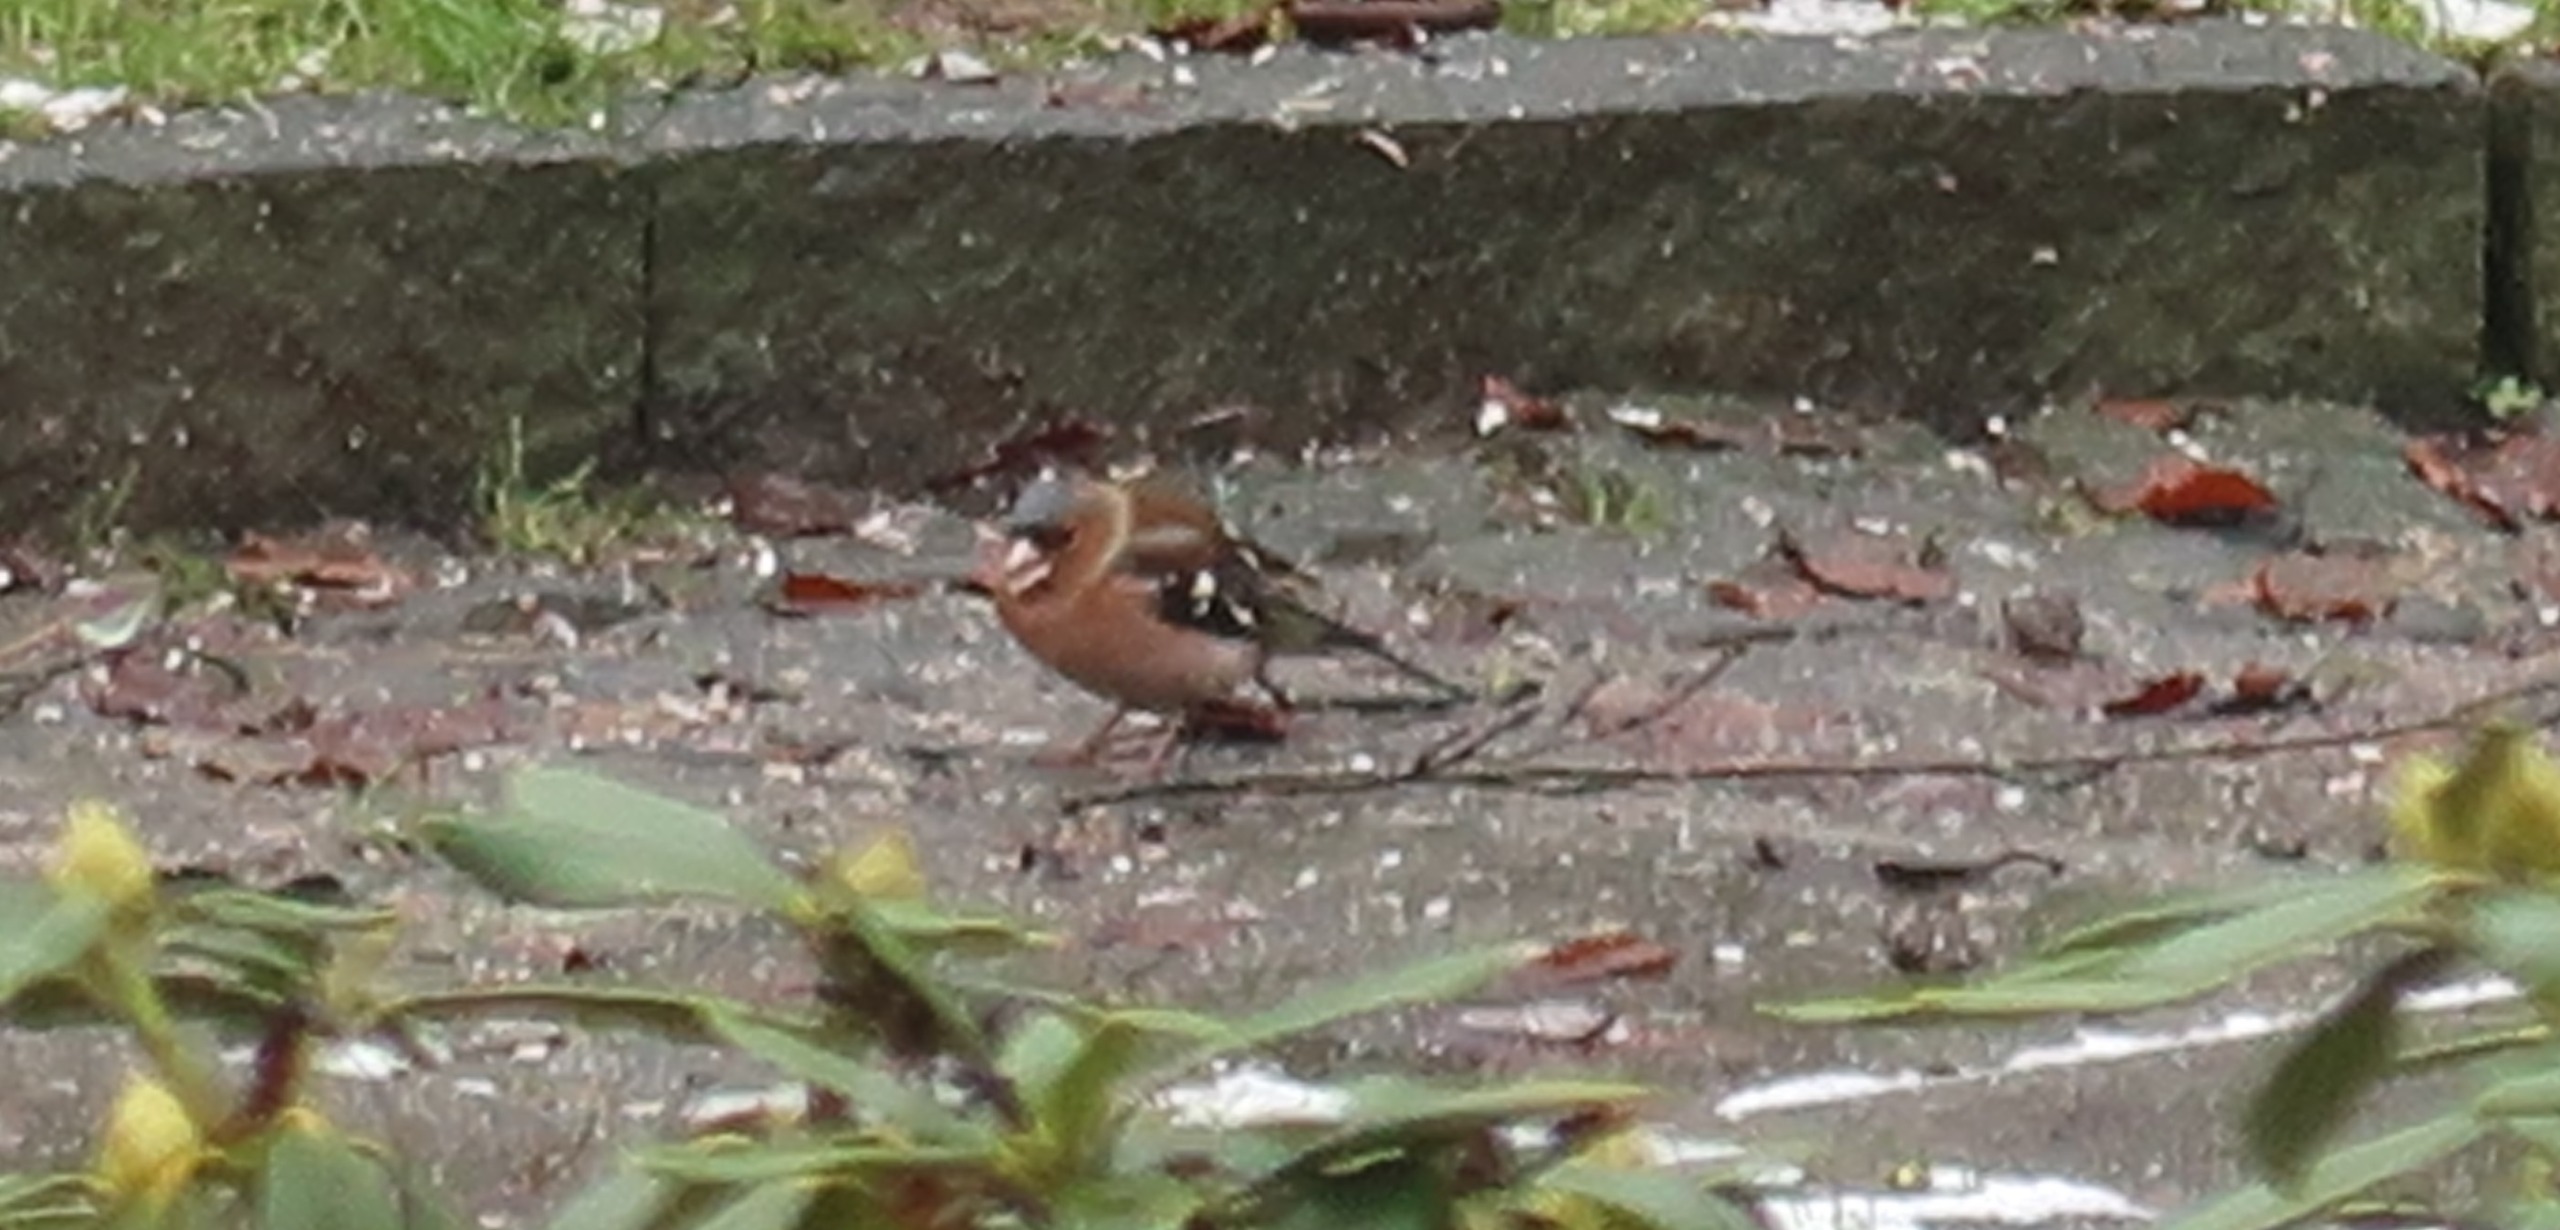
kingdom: Animalia
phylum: Chordata
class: Aves
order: Passeriformes
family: Fringillidae
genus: Fringilla
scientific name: Fringilla coelebs
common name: Bogfinke
